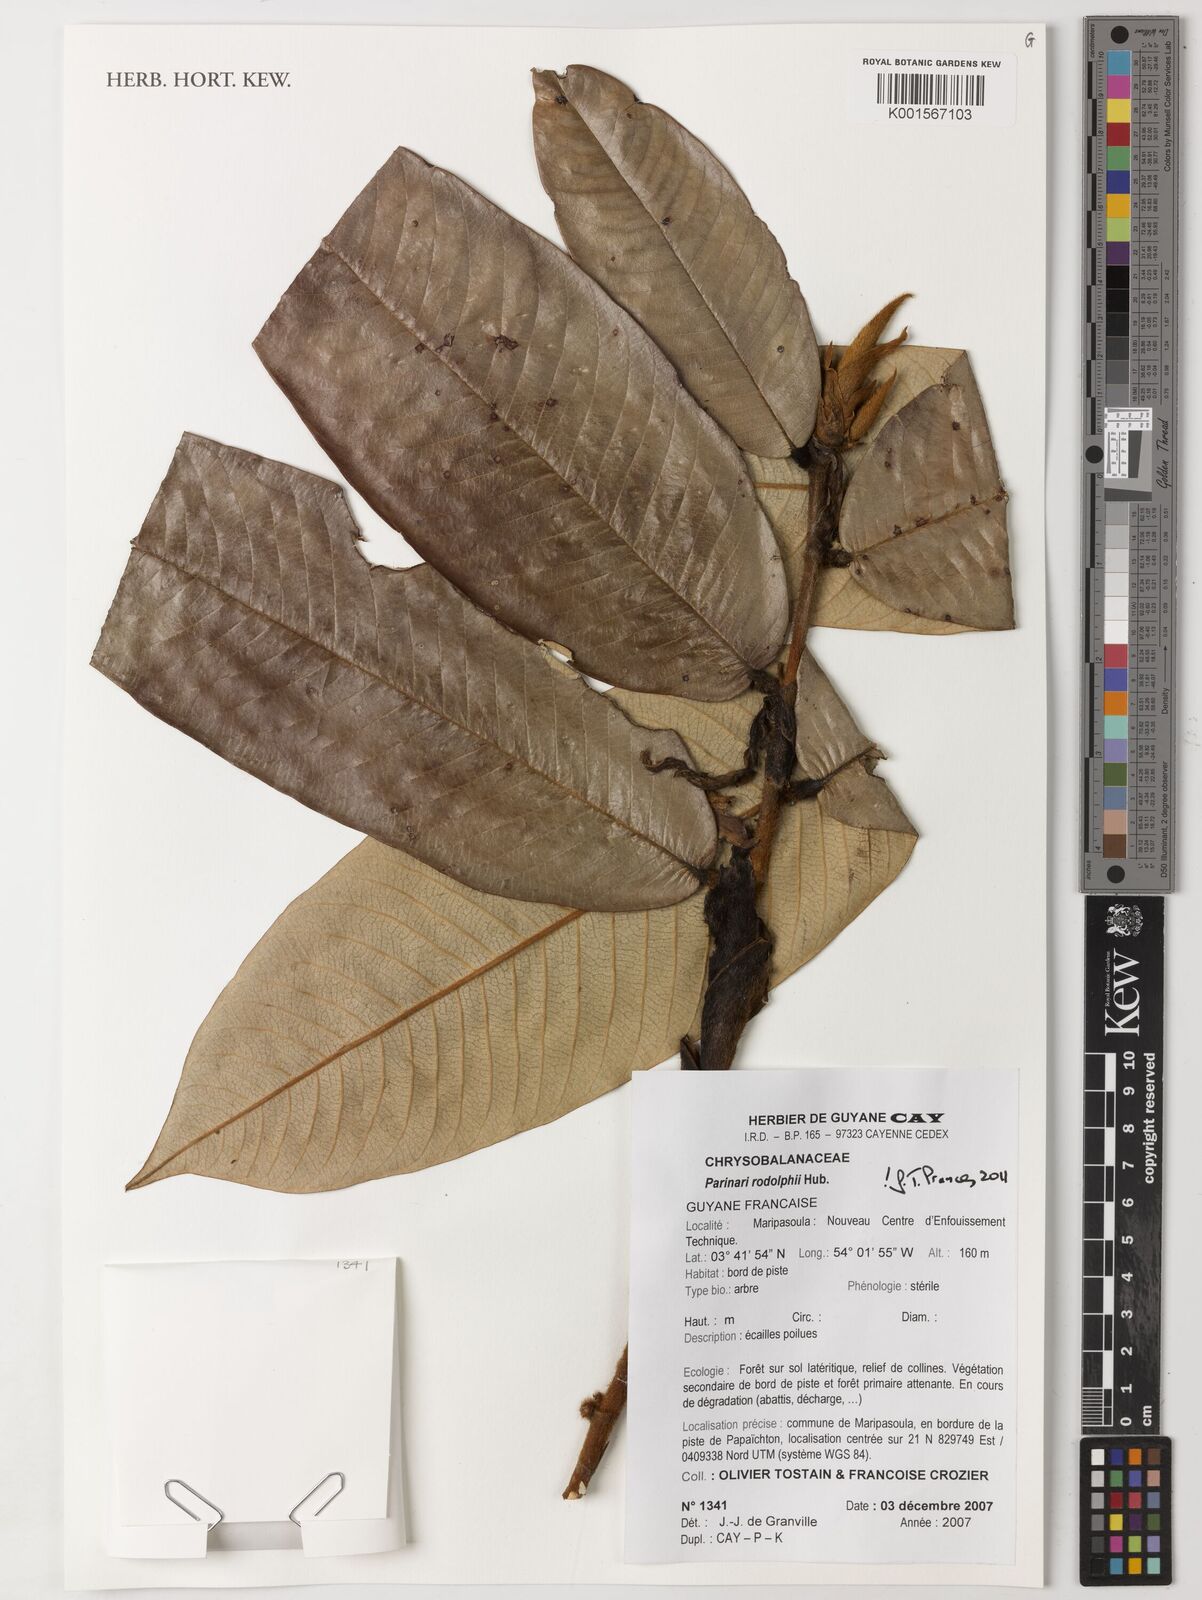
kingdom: Plantae
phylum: Tracheophyta
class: Magnoliopsida
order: Malpighiales
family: Chrysobalanaceae
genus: Parinari
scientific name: Parinari
